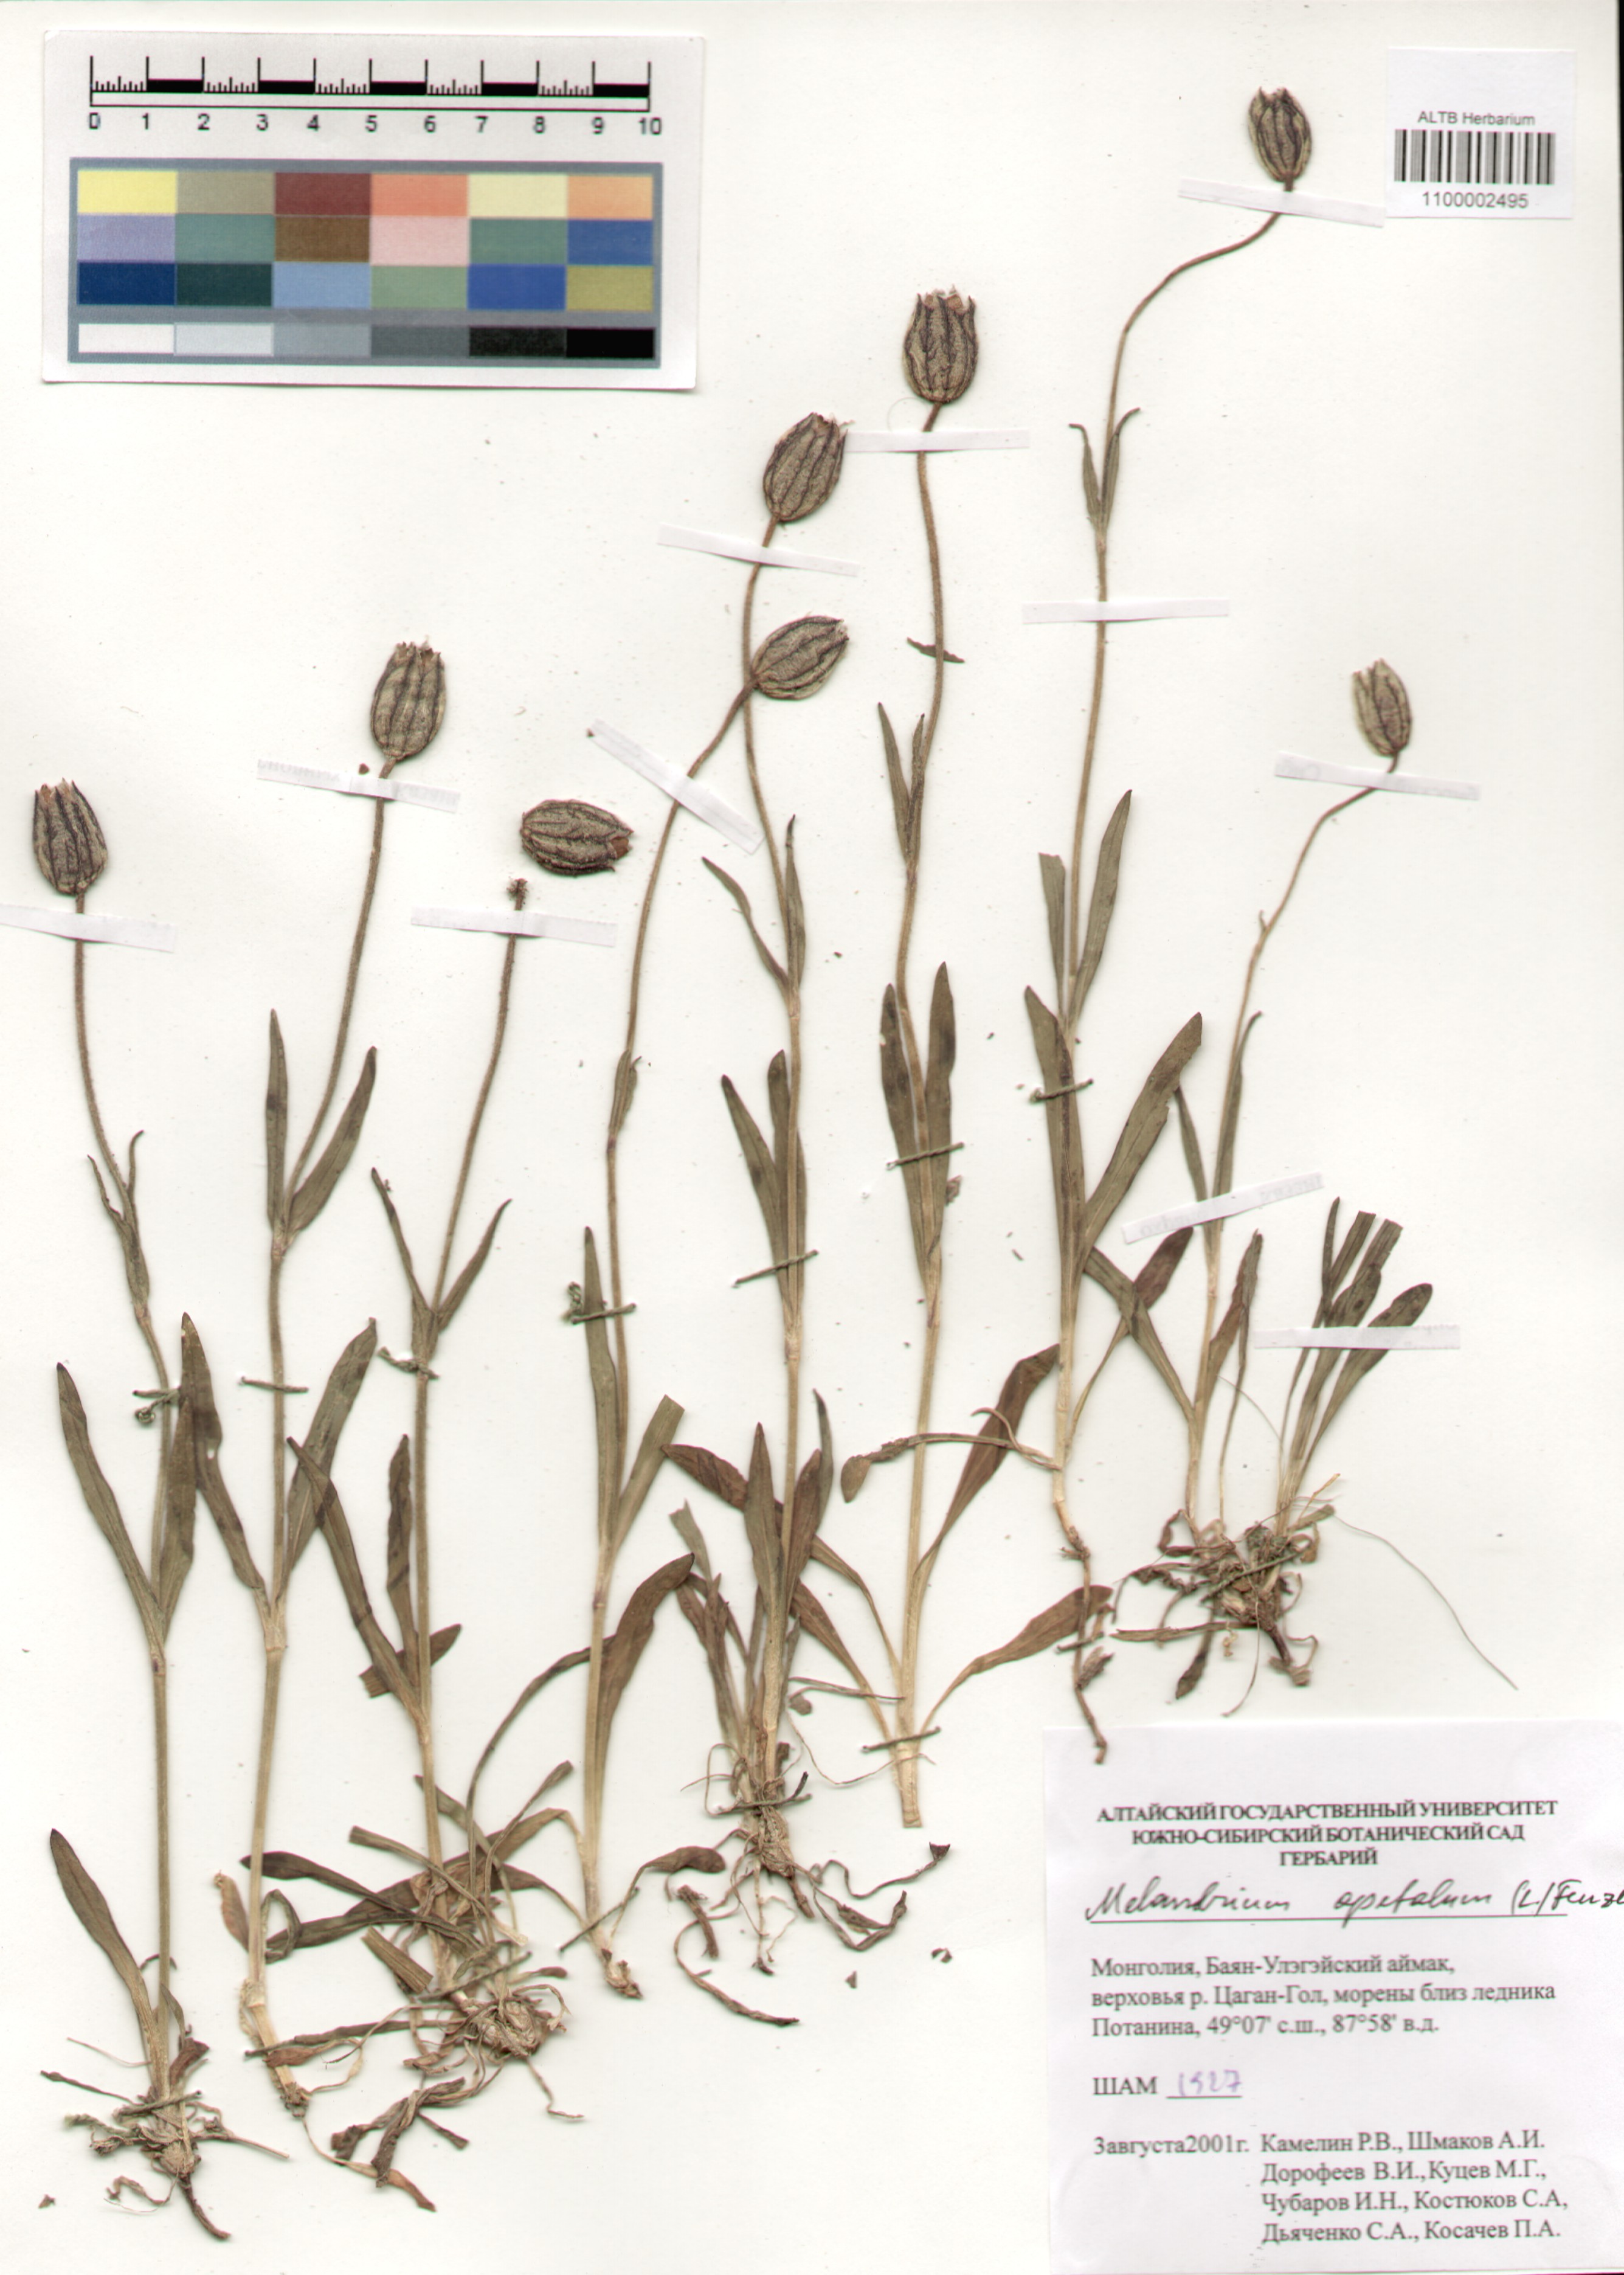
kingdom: Plantae
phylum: Tracheophyta
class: Magnoliopsida
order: Caryophyllales
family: Caryophyllaceae
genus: Silene
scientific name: Silene wahlbergella
